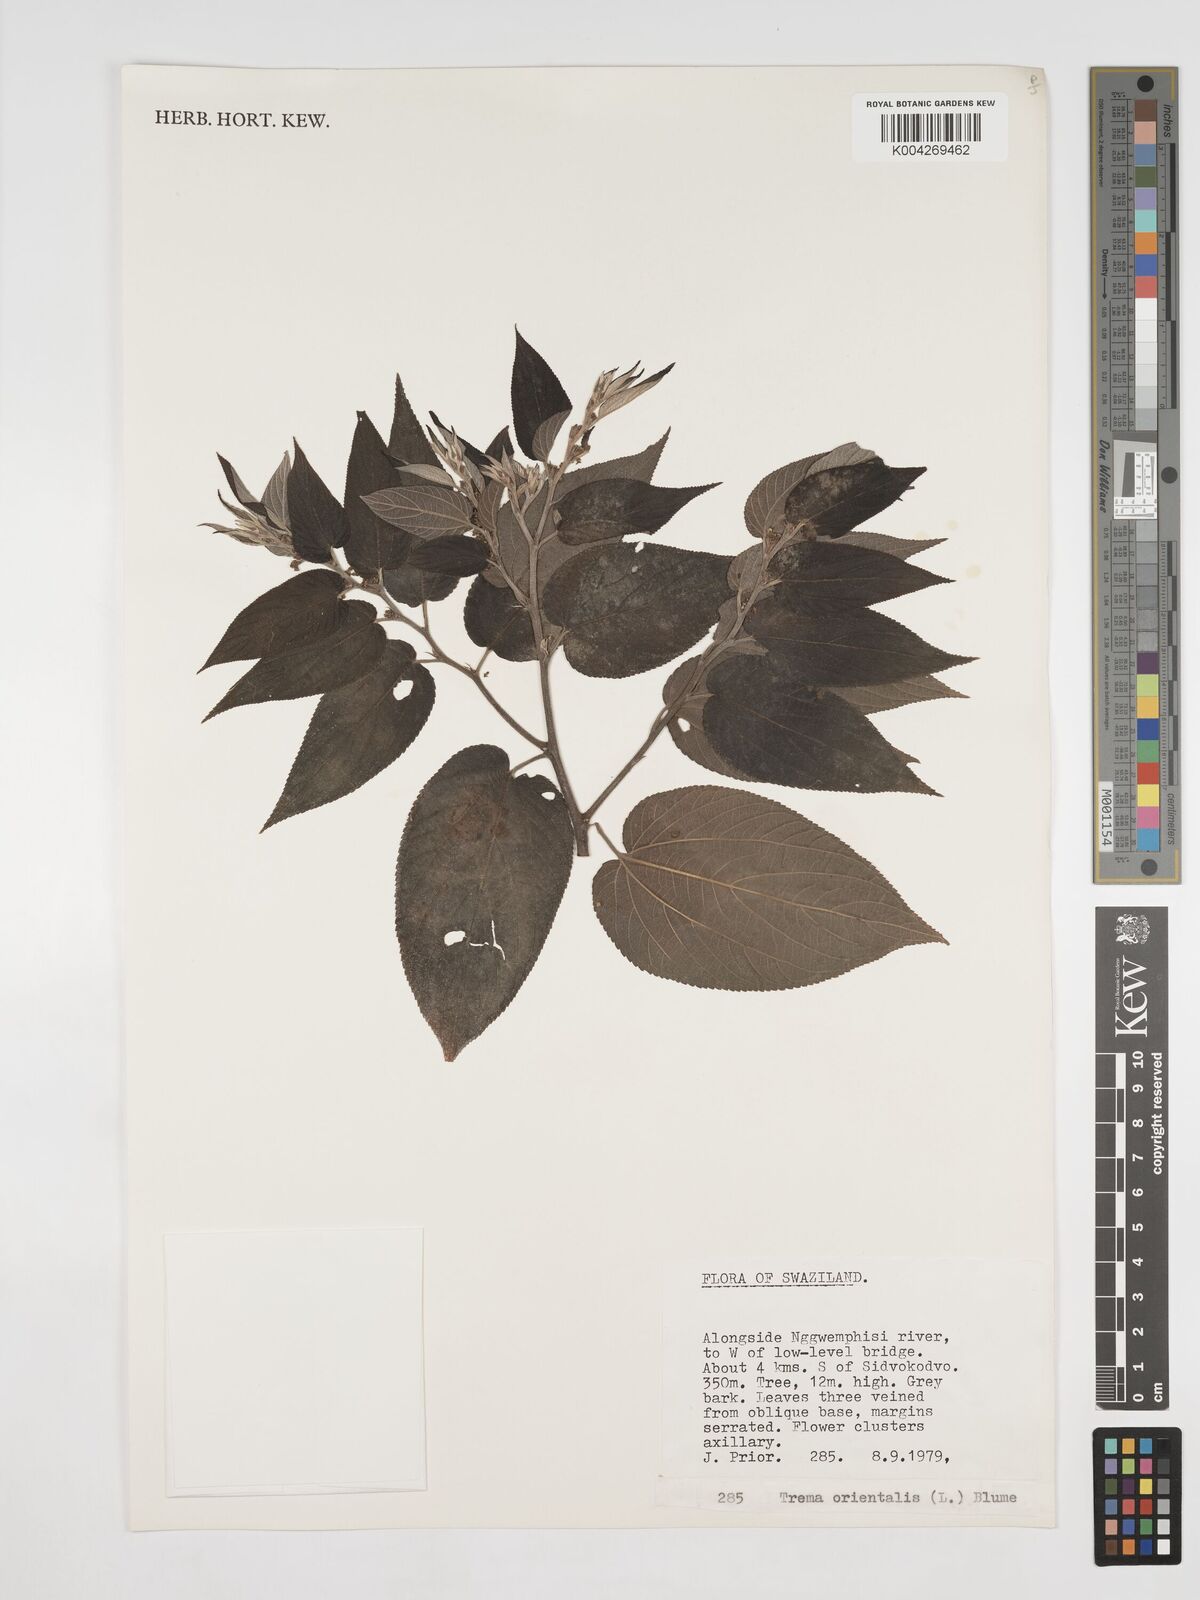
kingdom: Plantae
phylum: Tracheophyta
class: Magnoliopsida
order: Rosales
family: Cannabaceae
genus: Trema
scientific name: Trema orientale
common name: Indian charcoal tree
